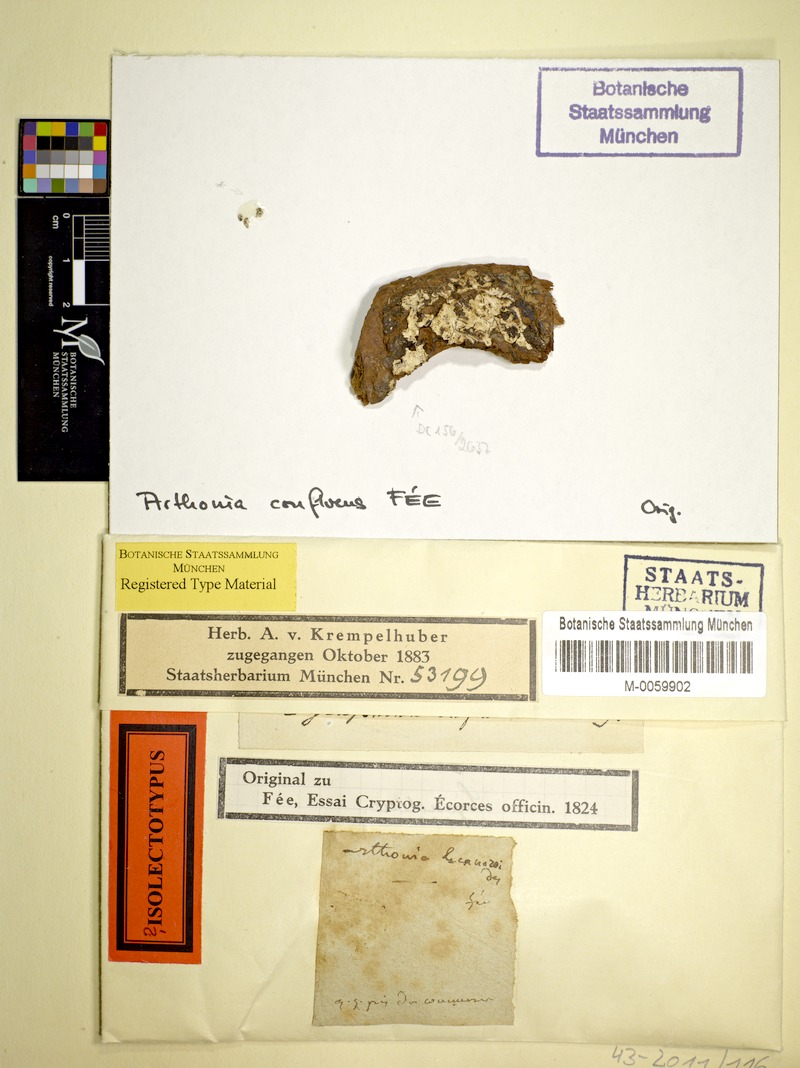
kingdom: Fungi
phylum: Ascomycota
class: Lecanoromycetes
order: Ostropales
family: Graphidaceae
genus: Diorygma
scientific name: Diorygma confluens
